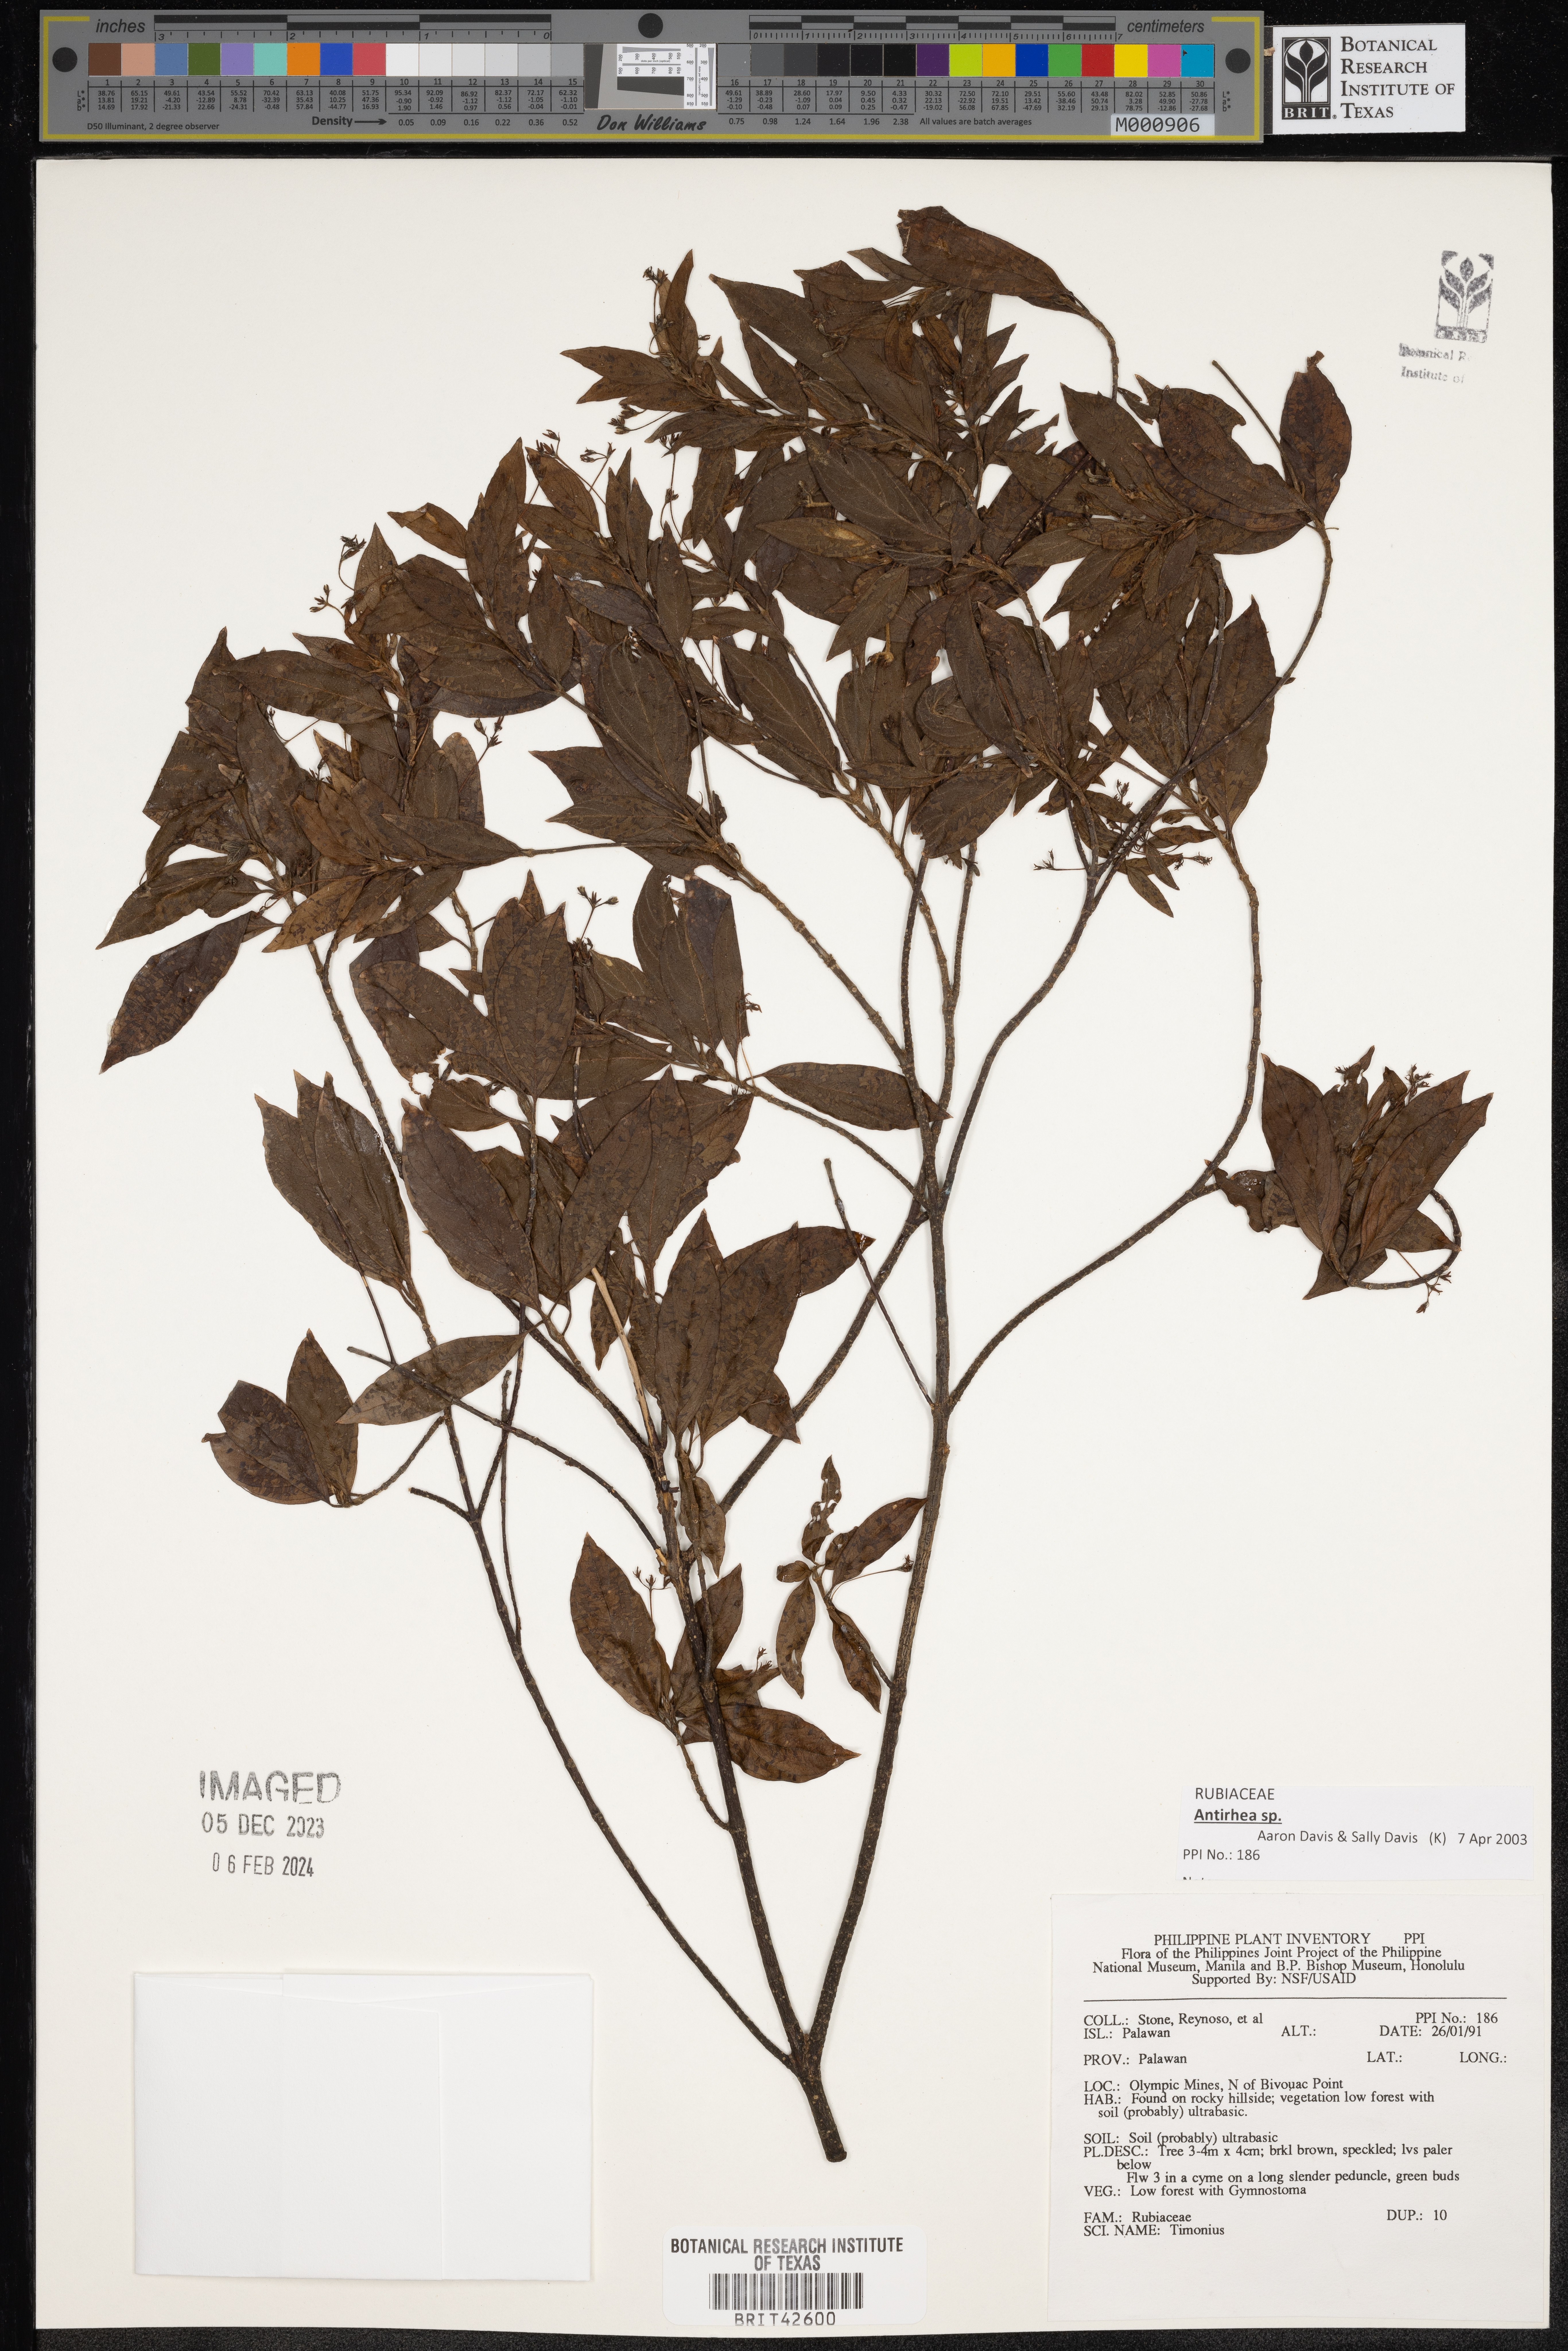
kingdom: Plantae
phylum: Tracheophyta
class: Magnoliopsida
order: Gentianales
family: Rubiaceae
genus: Timonius
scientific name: Timonius
